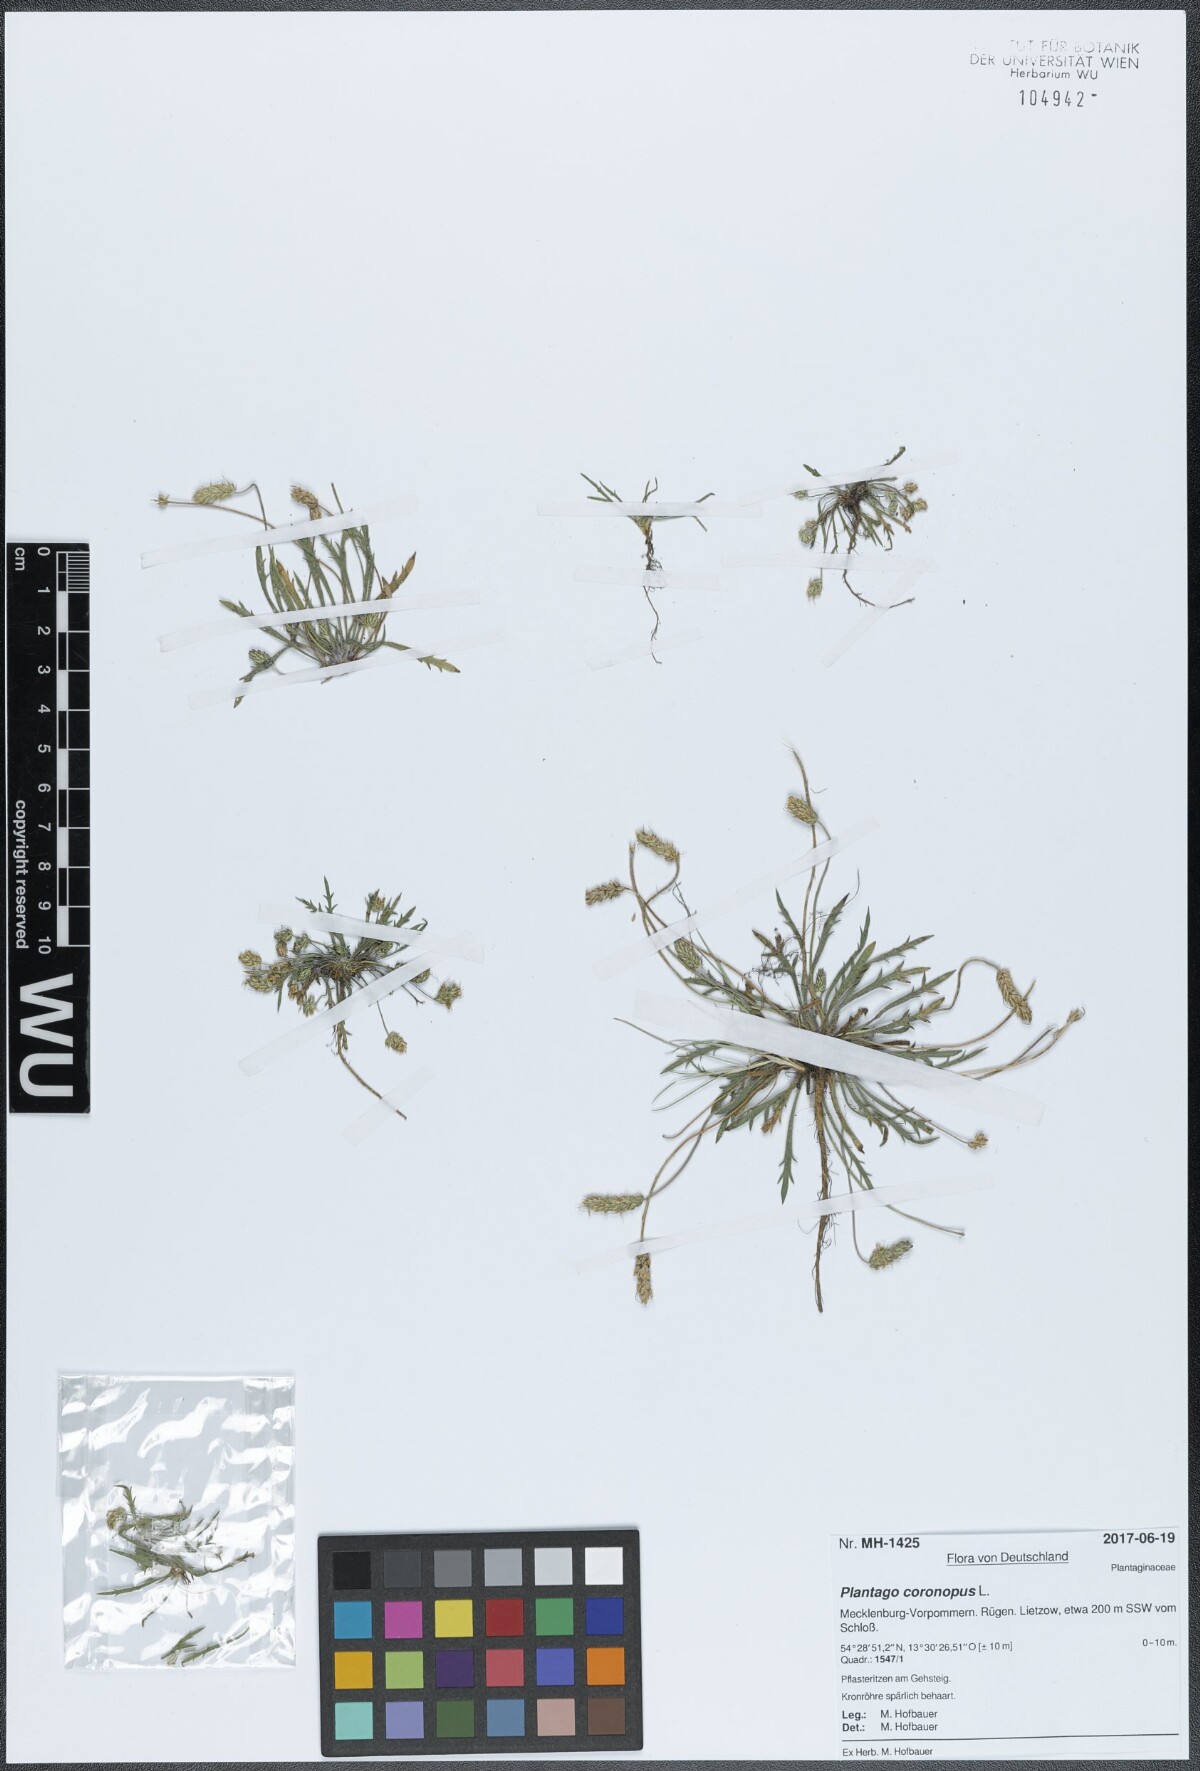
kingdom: Plantae
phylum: Tracheophyta
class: Magnoliopsida
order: Lamiales
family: Plantaginaceae
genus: Plantago
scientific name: Plantago coronopus
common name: Buck's-horn plantain
